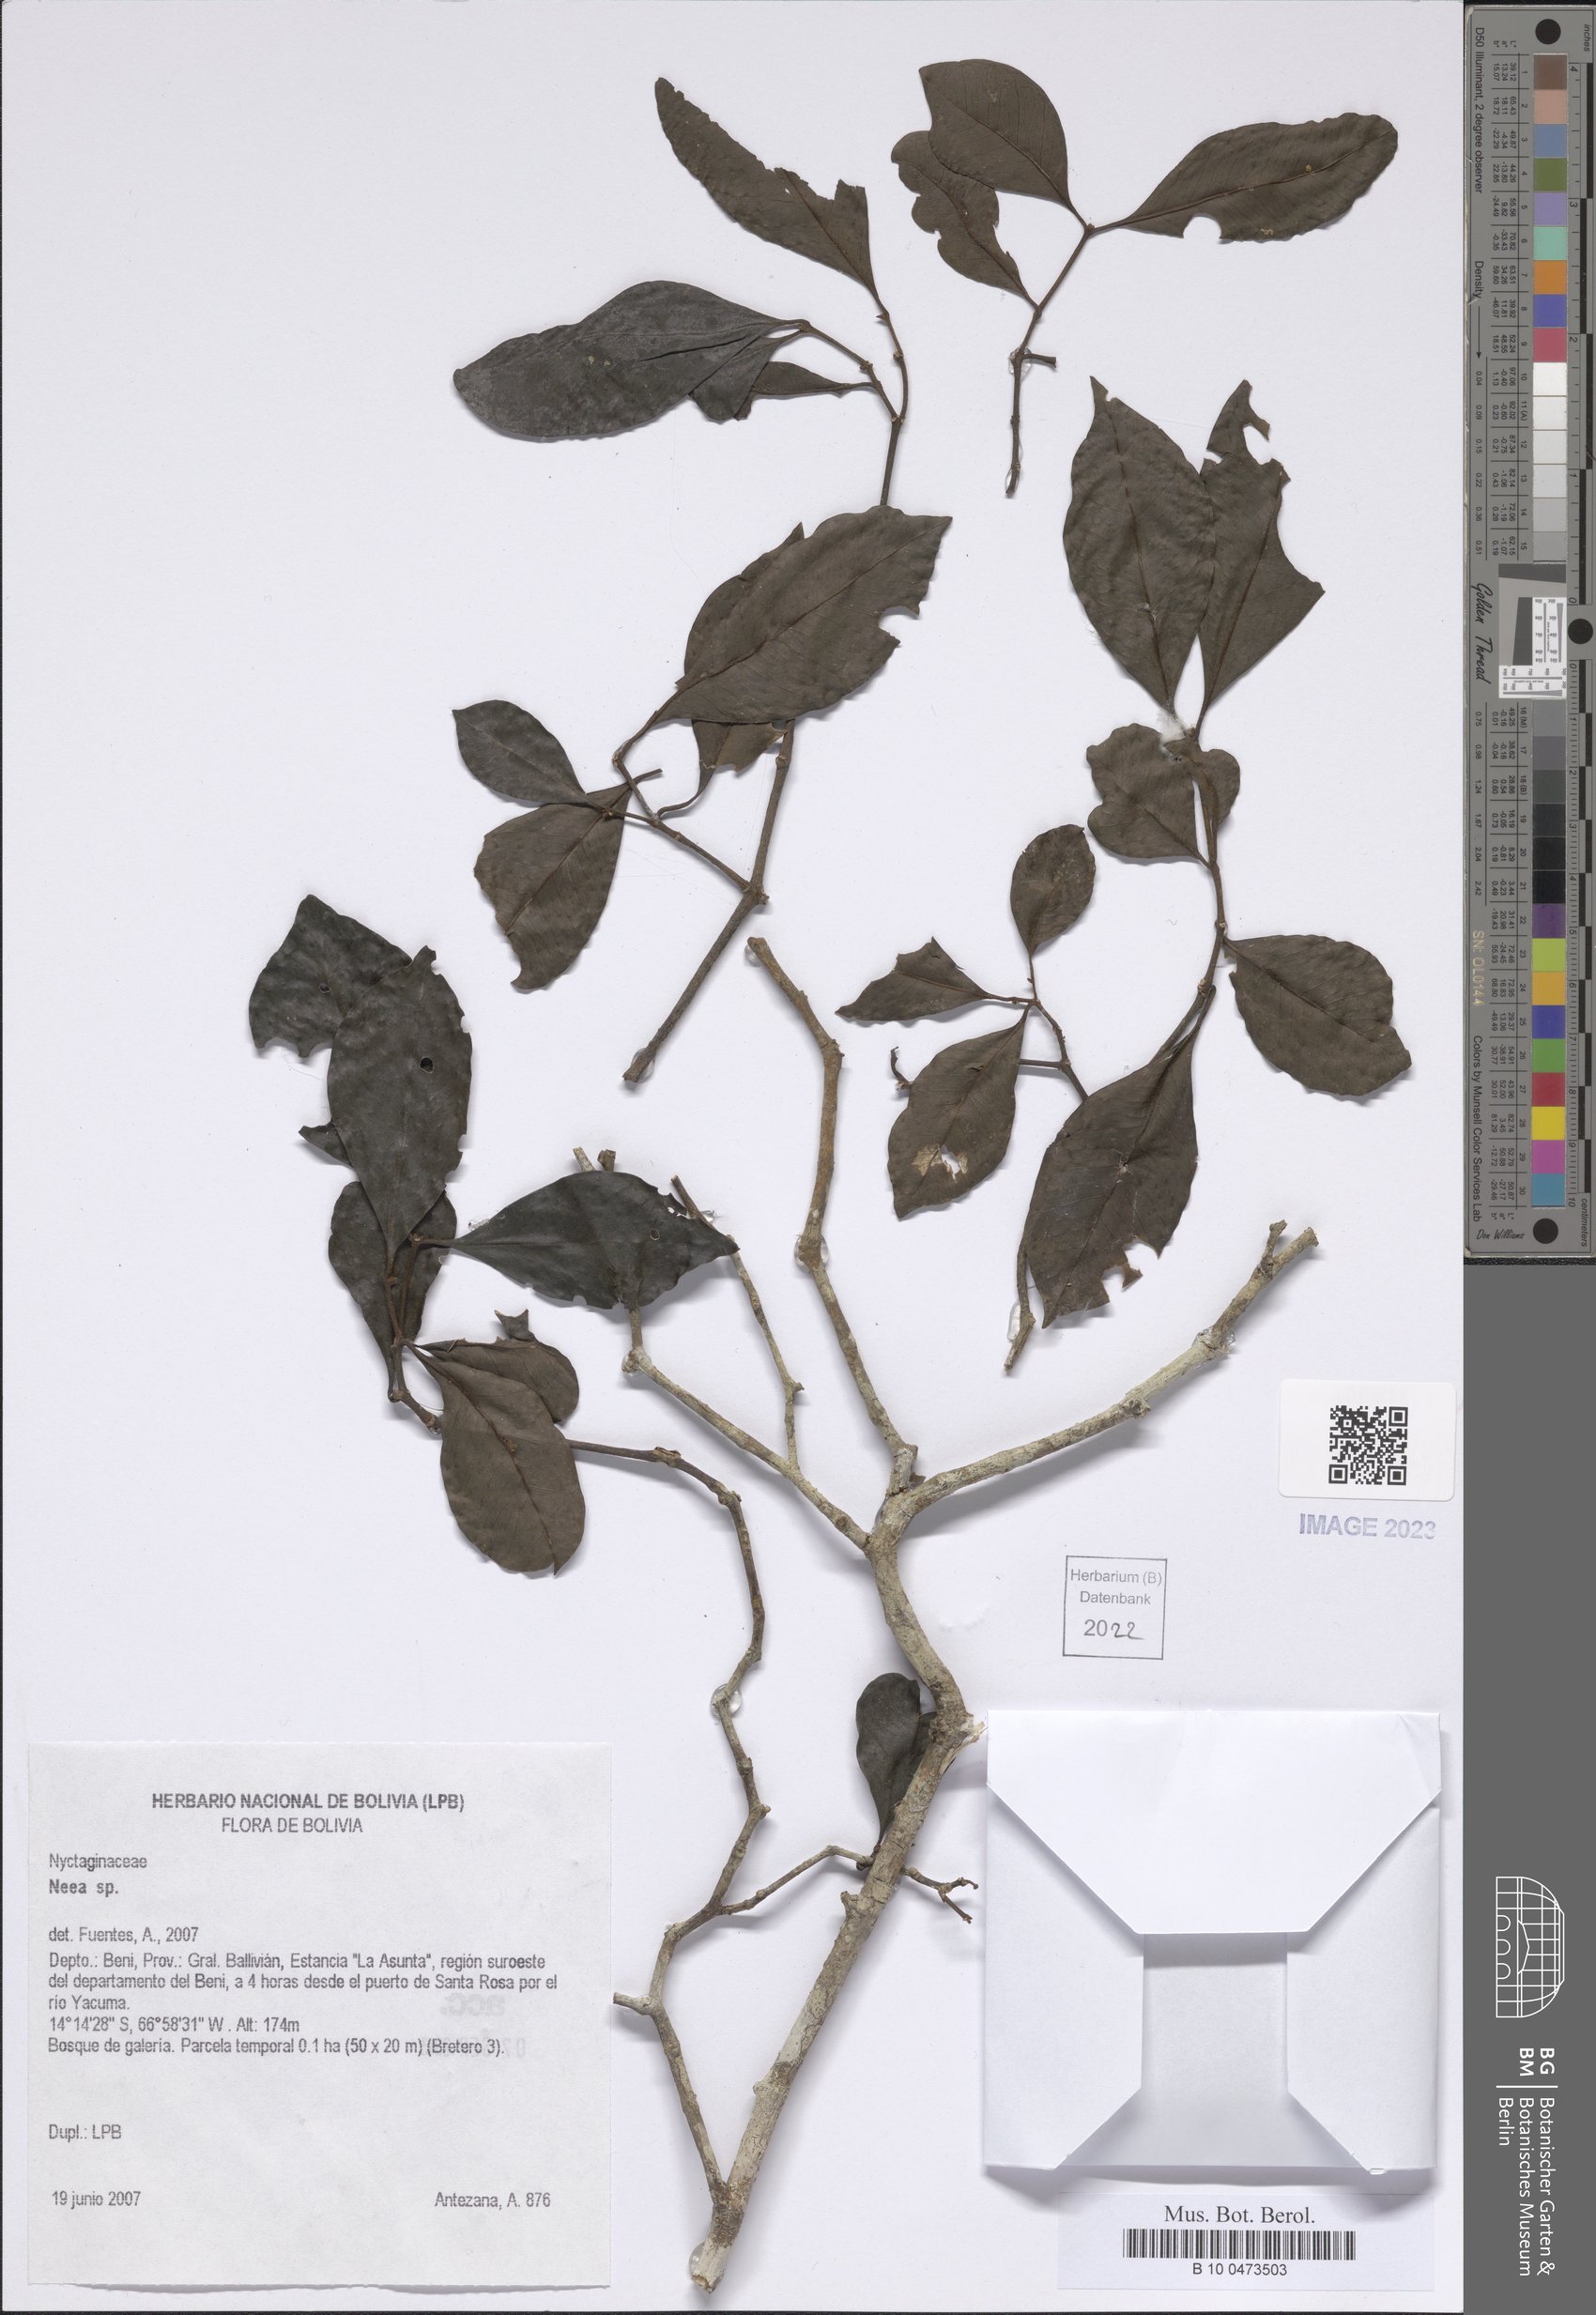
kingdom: Plantae
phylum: Tracheophyta
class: Magnoliopsida
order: Caryophyllales
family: Nyctaginaceae
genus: Neea
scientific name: Neea
